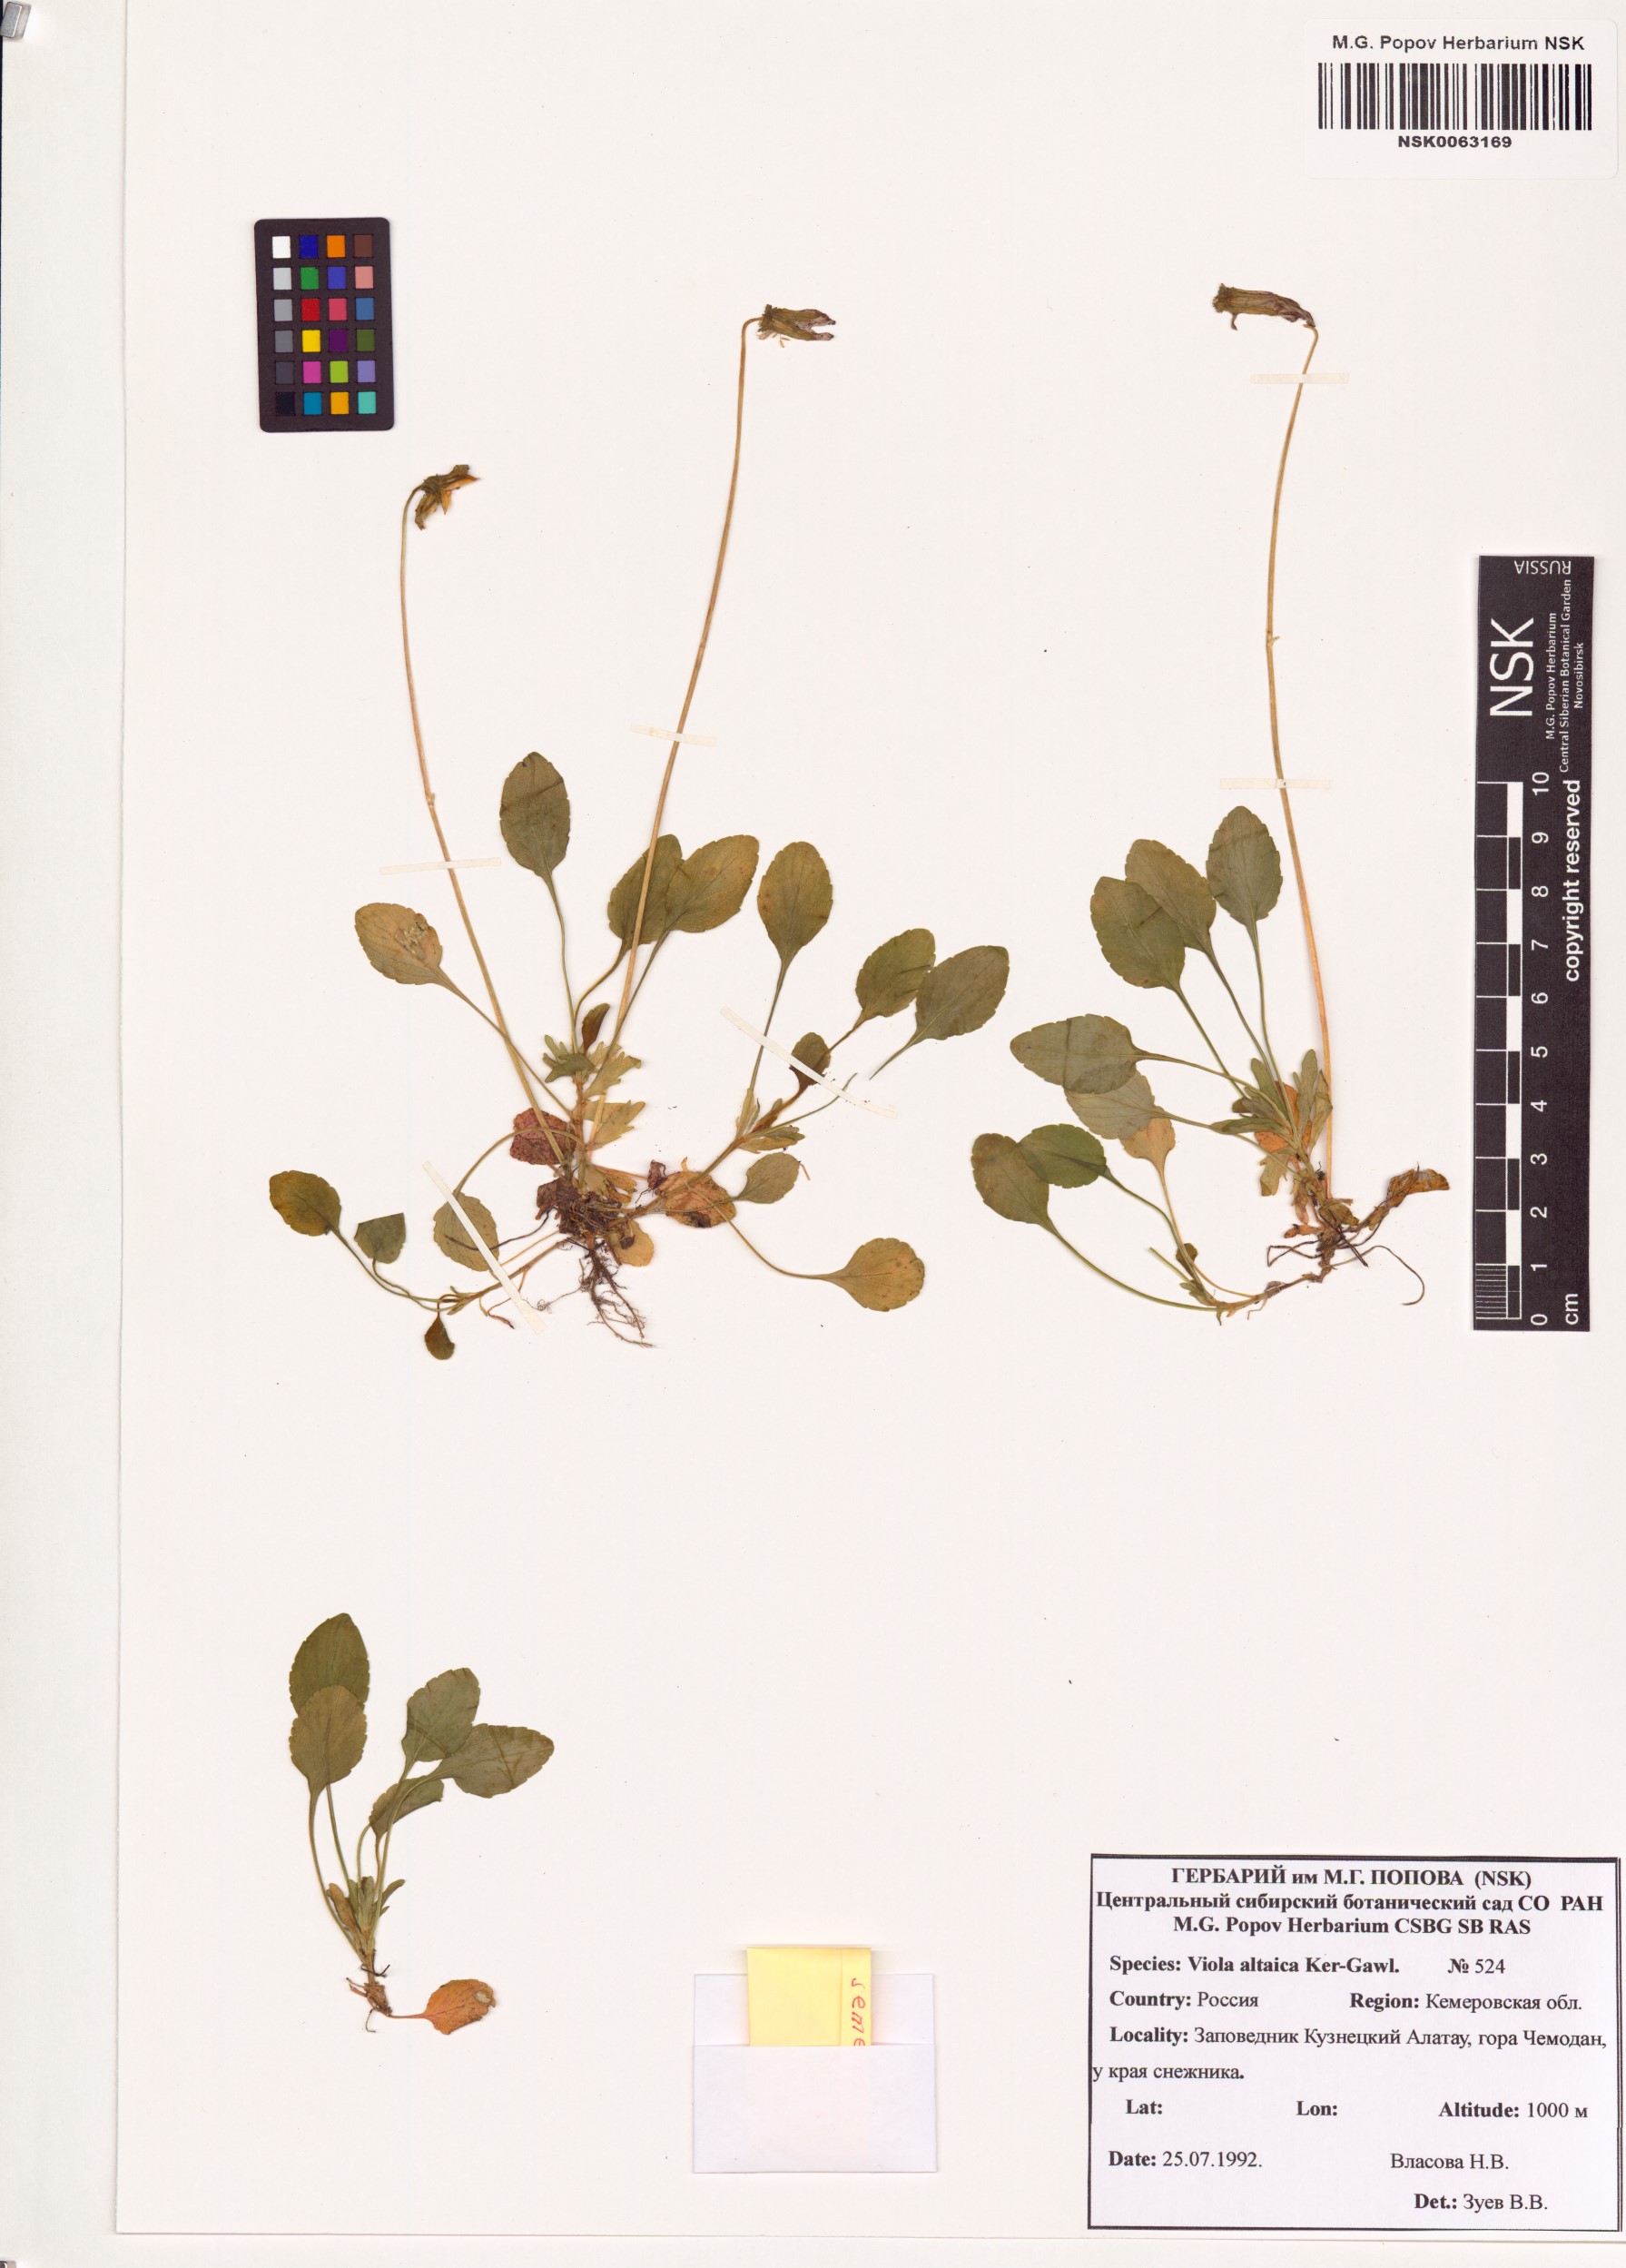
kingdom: Plantae
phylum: Tracheophyta
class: Magnoliopsida
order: Malpighiales
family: Violaceae
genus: Viola
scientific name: Viola altaica
